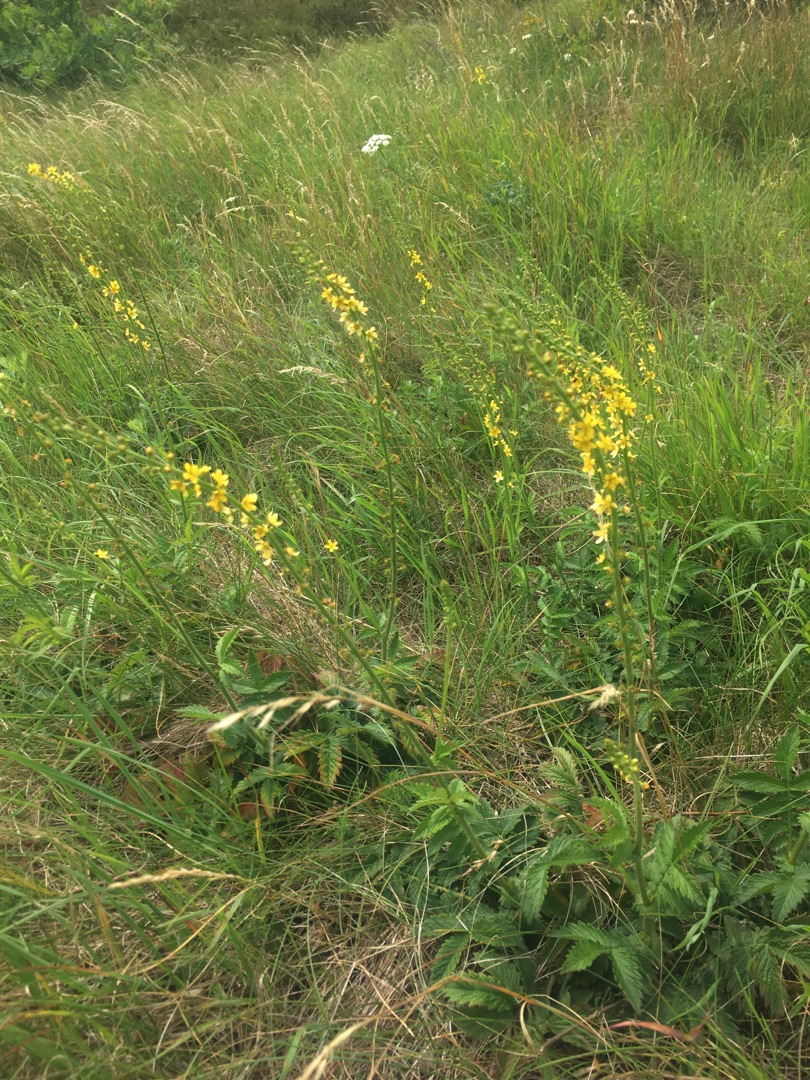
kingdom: Plantae
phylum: Tracheophyta
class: Magnoliopsida
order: Rosales
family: Rosaceae
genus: Agrimonia
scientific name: Agrimonia
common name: Agermåneslægten
